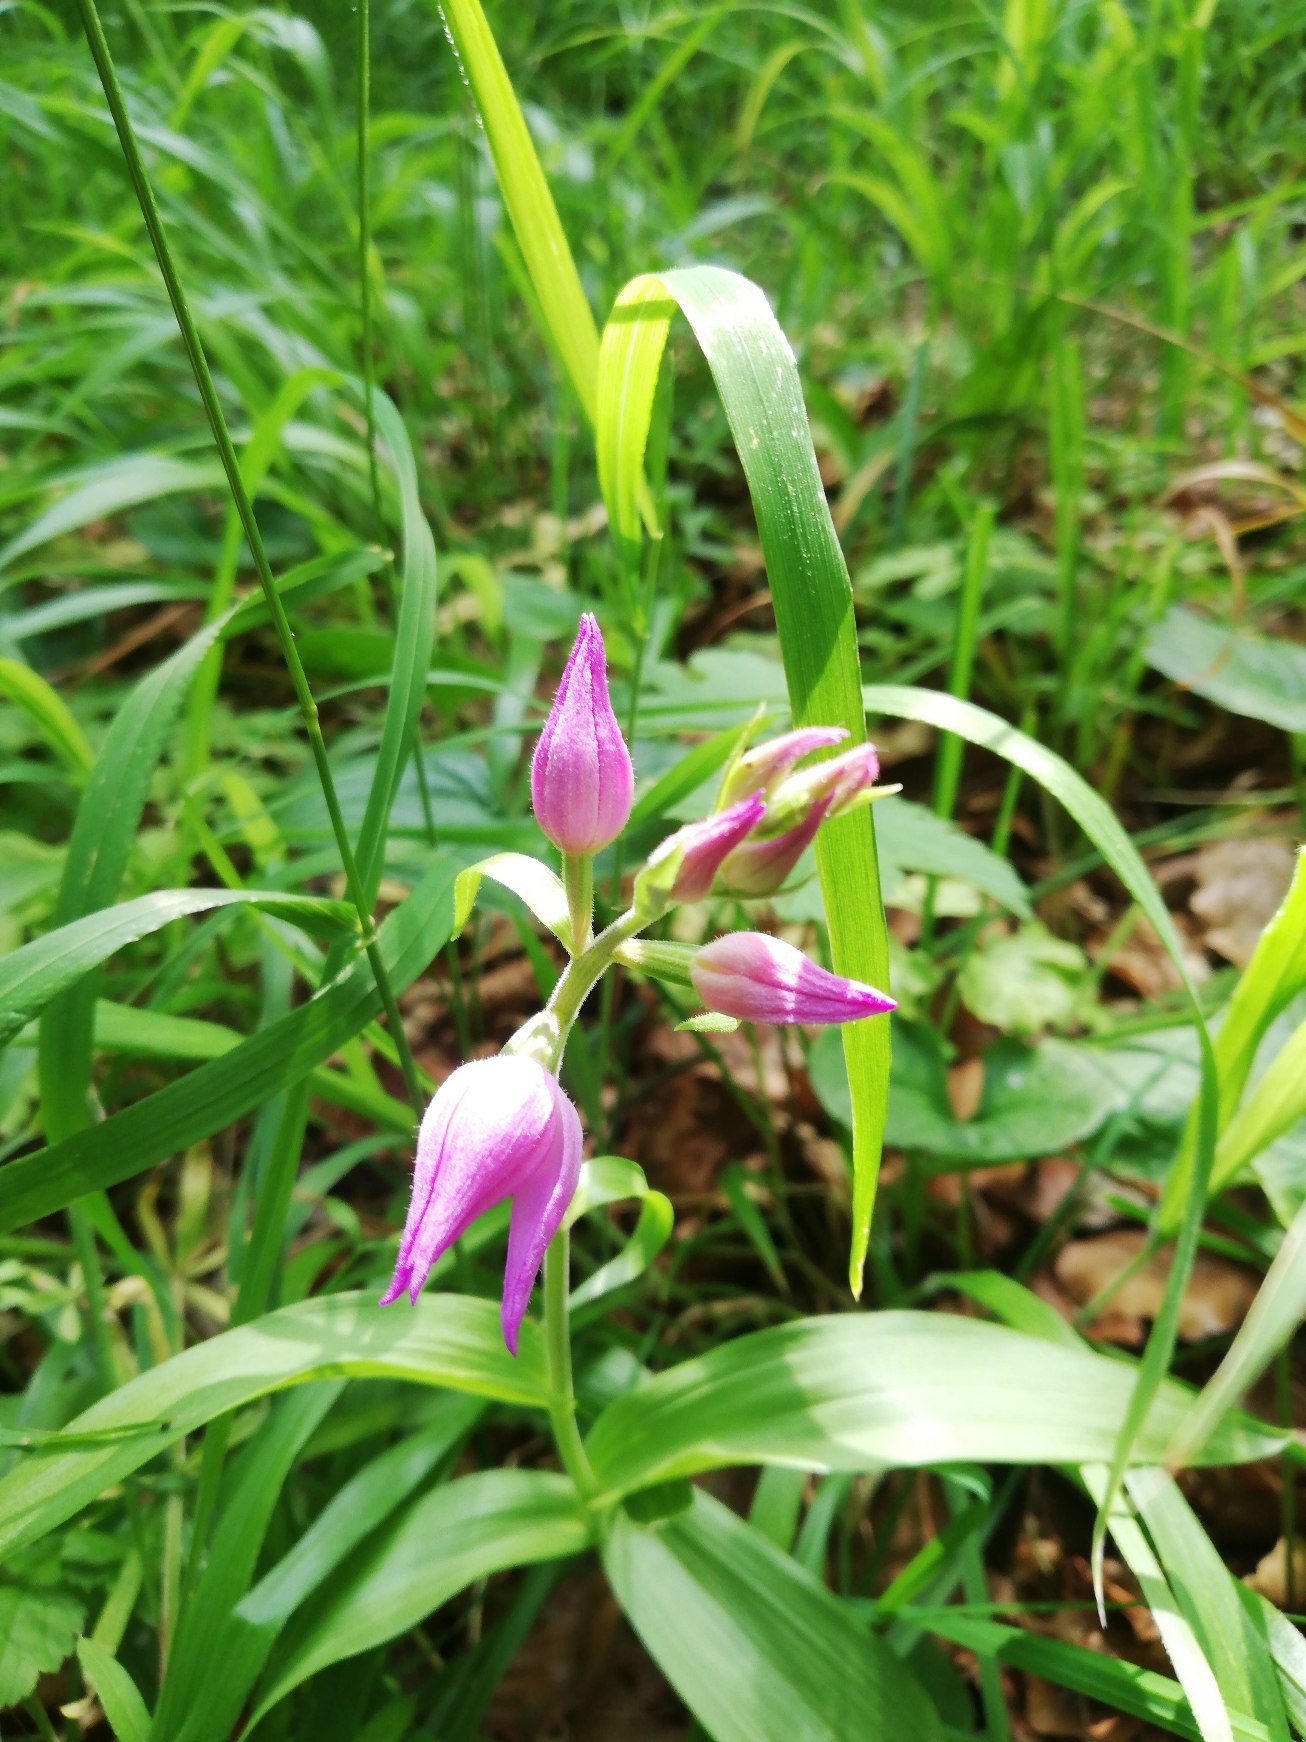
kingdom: Plantae
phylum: Tracheophyta
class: Liliopsida
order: Asparagales
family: Orchidaceae
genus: Cephalanthera
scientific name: Cephalanthera rubra
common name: Rød skovlilje
